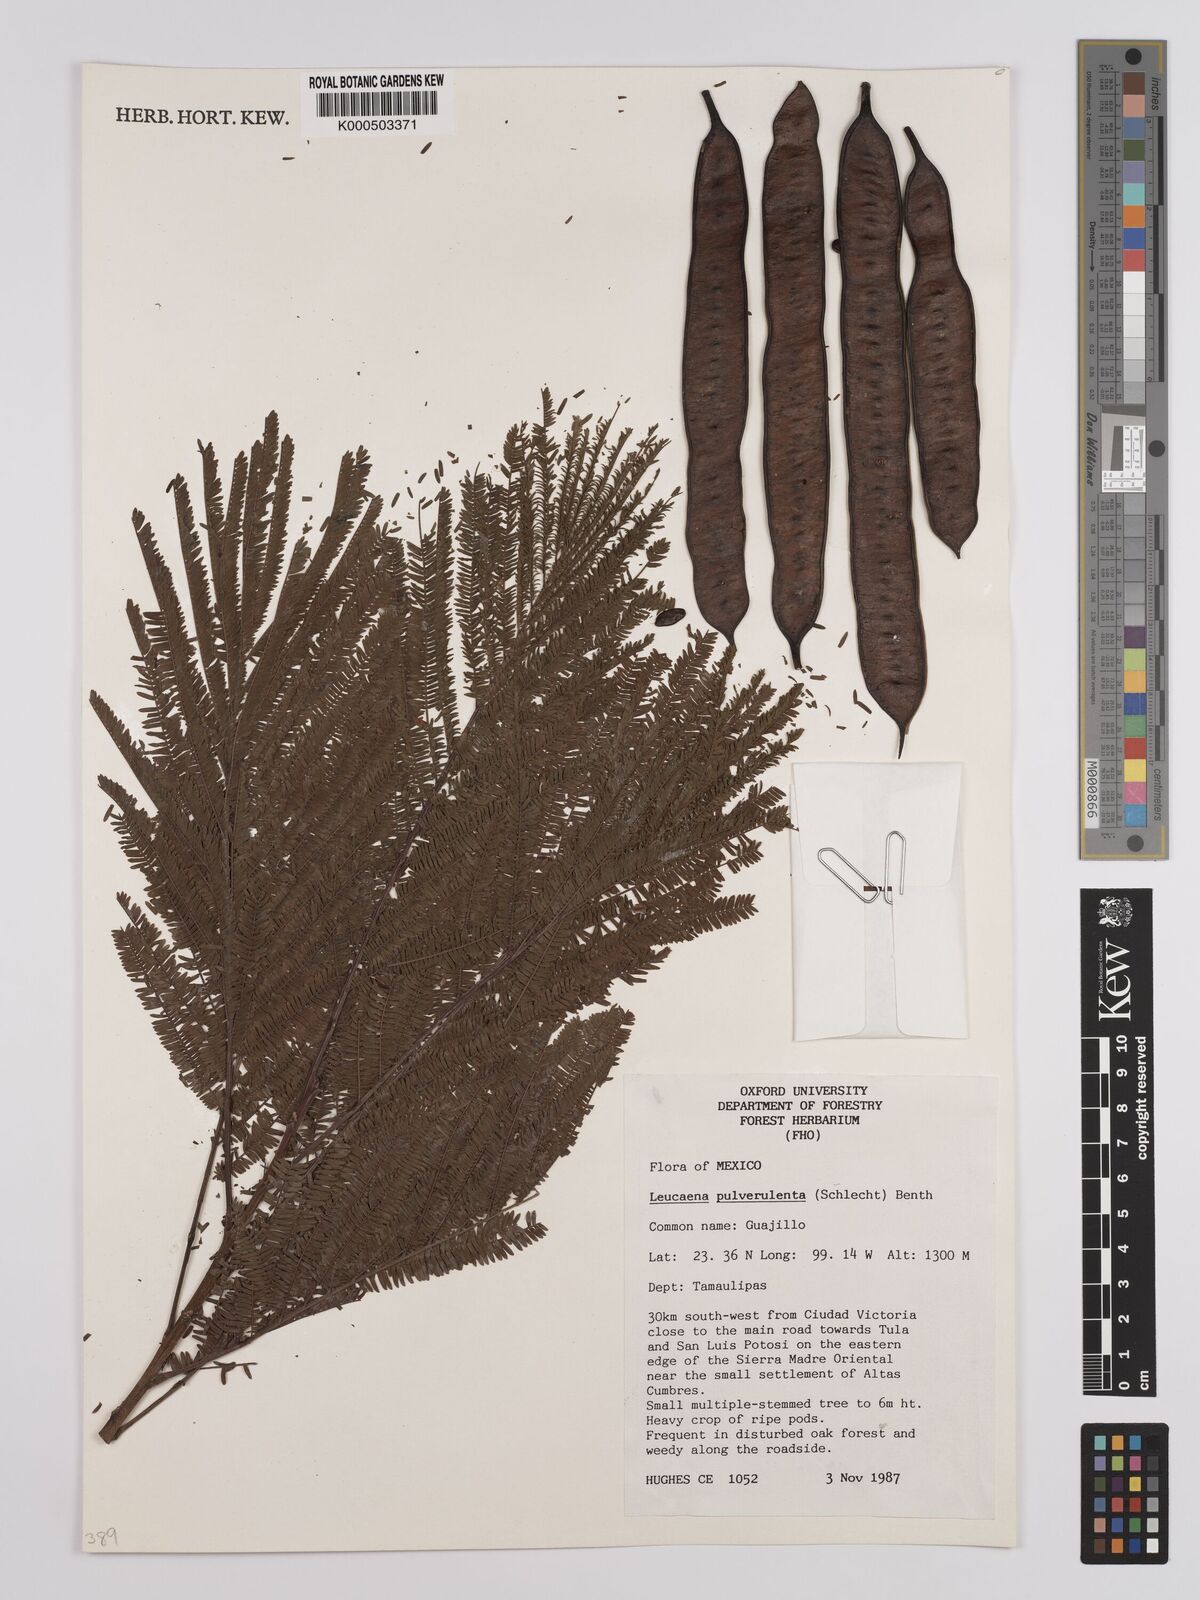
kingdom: Plantae
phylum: Tracheophyta
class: Magnoliopsida
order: Fabales
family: Fabaceae
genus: Leucaena
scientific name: Leucaena pulverulenta
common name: Great leadtree
